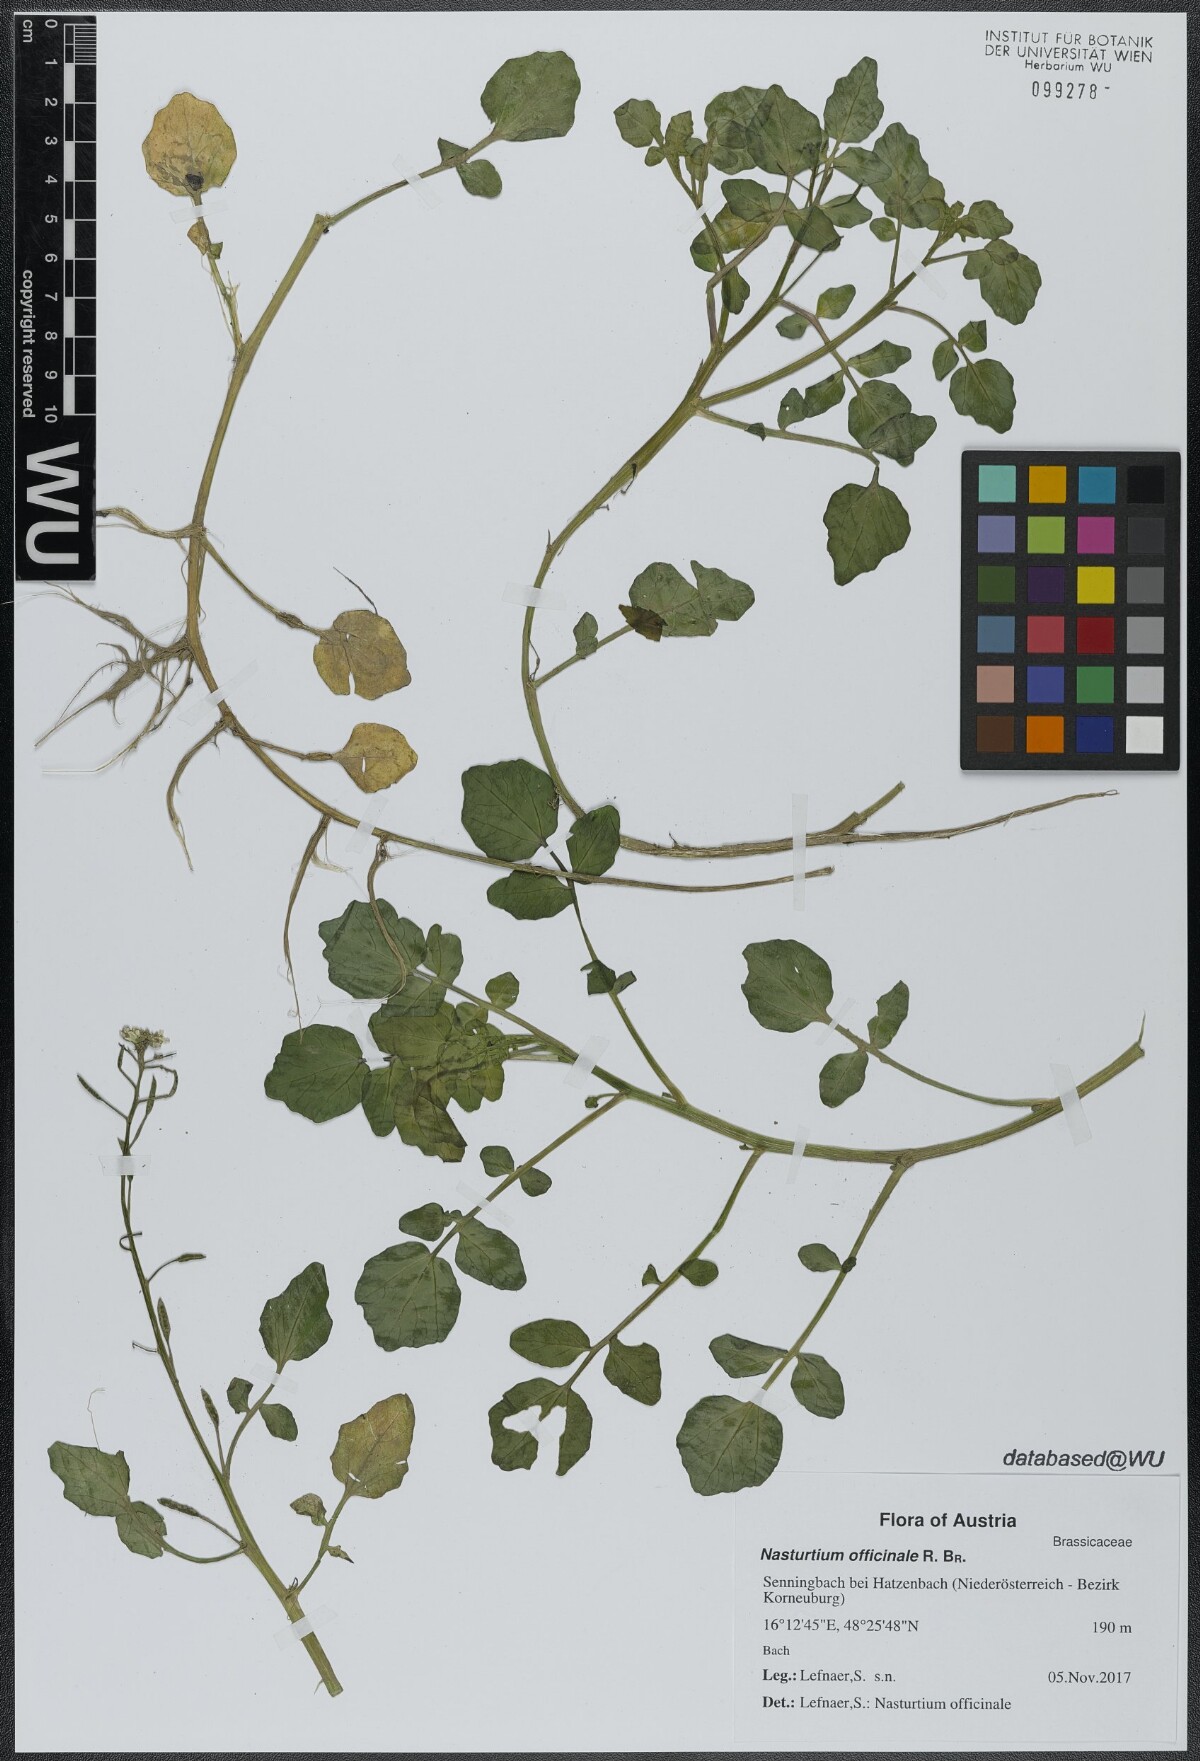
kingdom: Plantae
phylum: Tracheophyta
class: Magnoliopsida
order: Brassicales
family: Brassicaceae
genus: Nasturtium
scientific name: Nasturtium officinale
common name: Watercress
